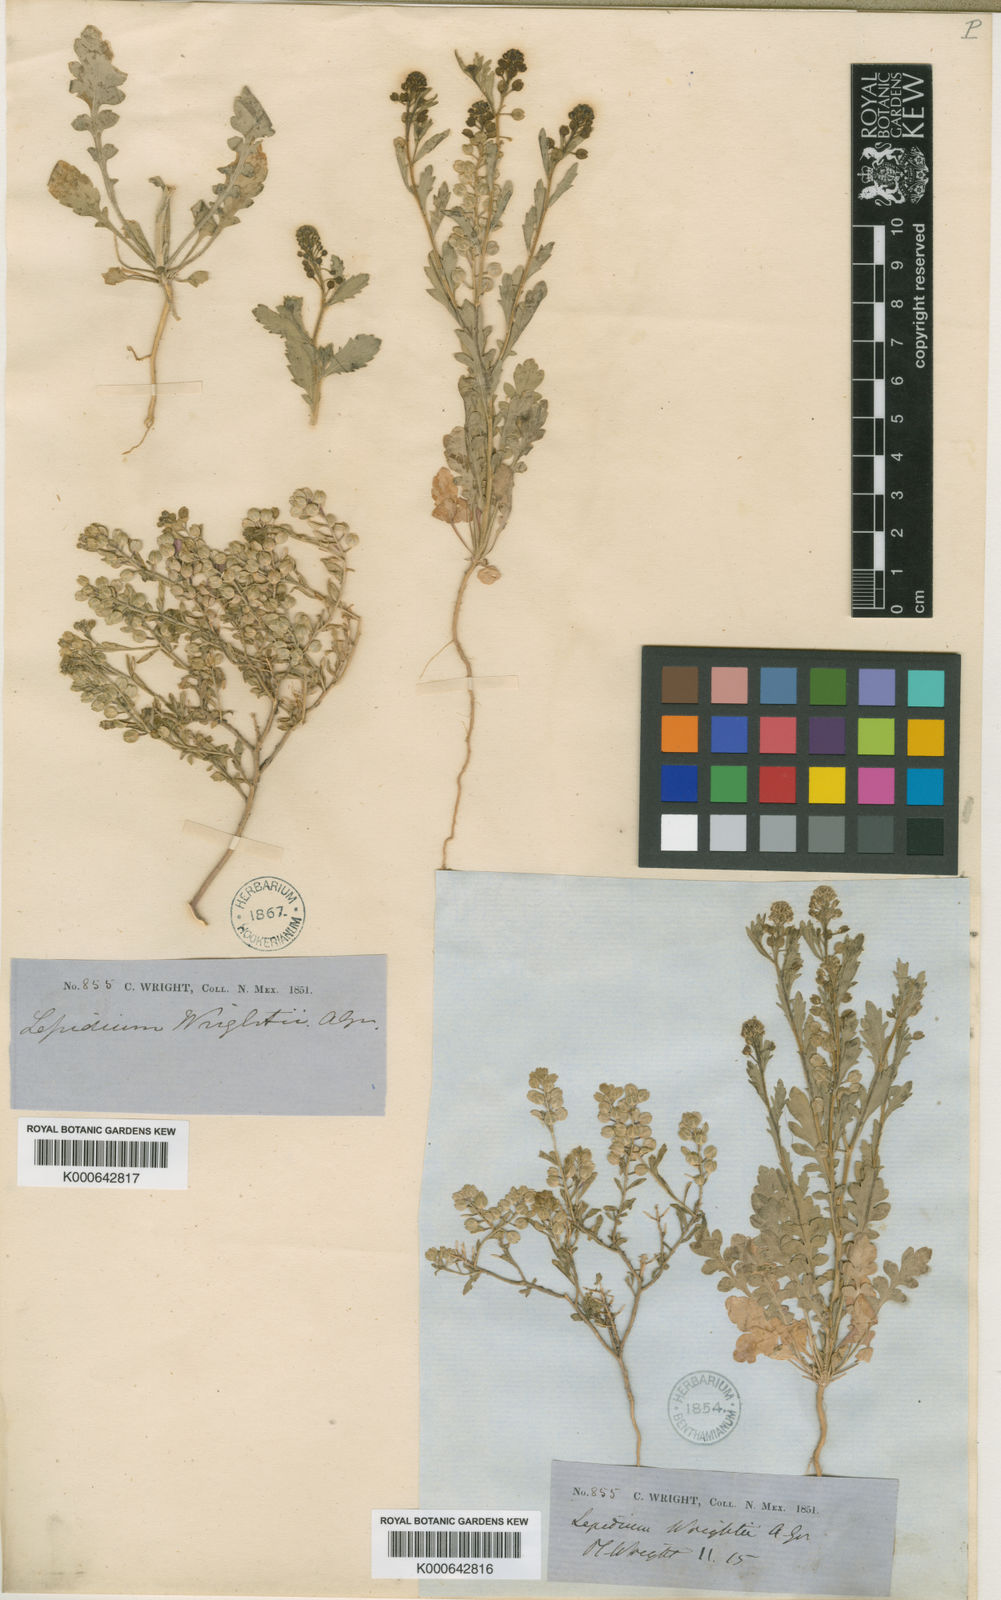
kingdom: Plantae
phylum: Tracheophyta
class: Magnoliopsida
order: Brassicales
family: Brassicaceae
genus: Lepidium
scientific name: Lepidium lasiocarpum
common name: Hairy-pod pepperwort
